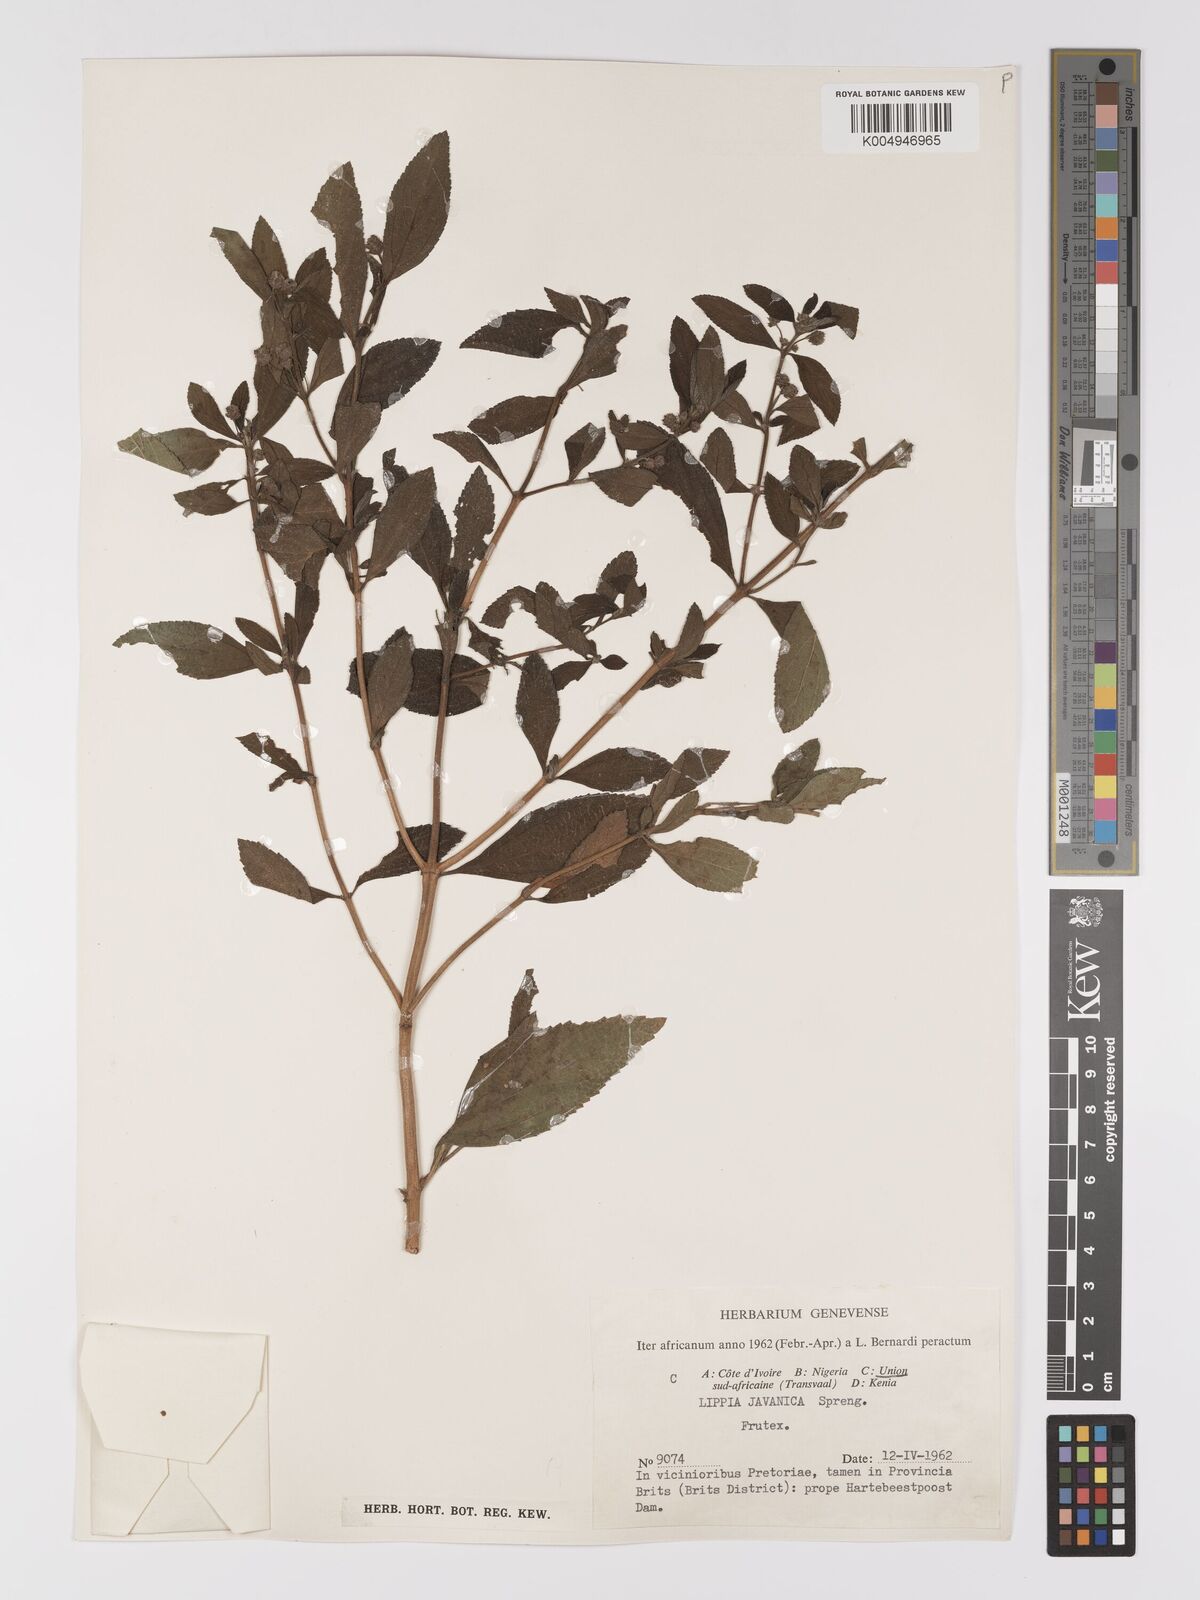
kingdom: Plantae
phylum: Tracheophyta
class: Magnoliopsida
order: Lamiales
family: Verbenaceae
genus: Lippia
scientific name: Lippia javanica
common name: Lemonbush
